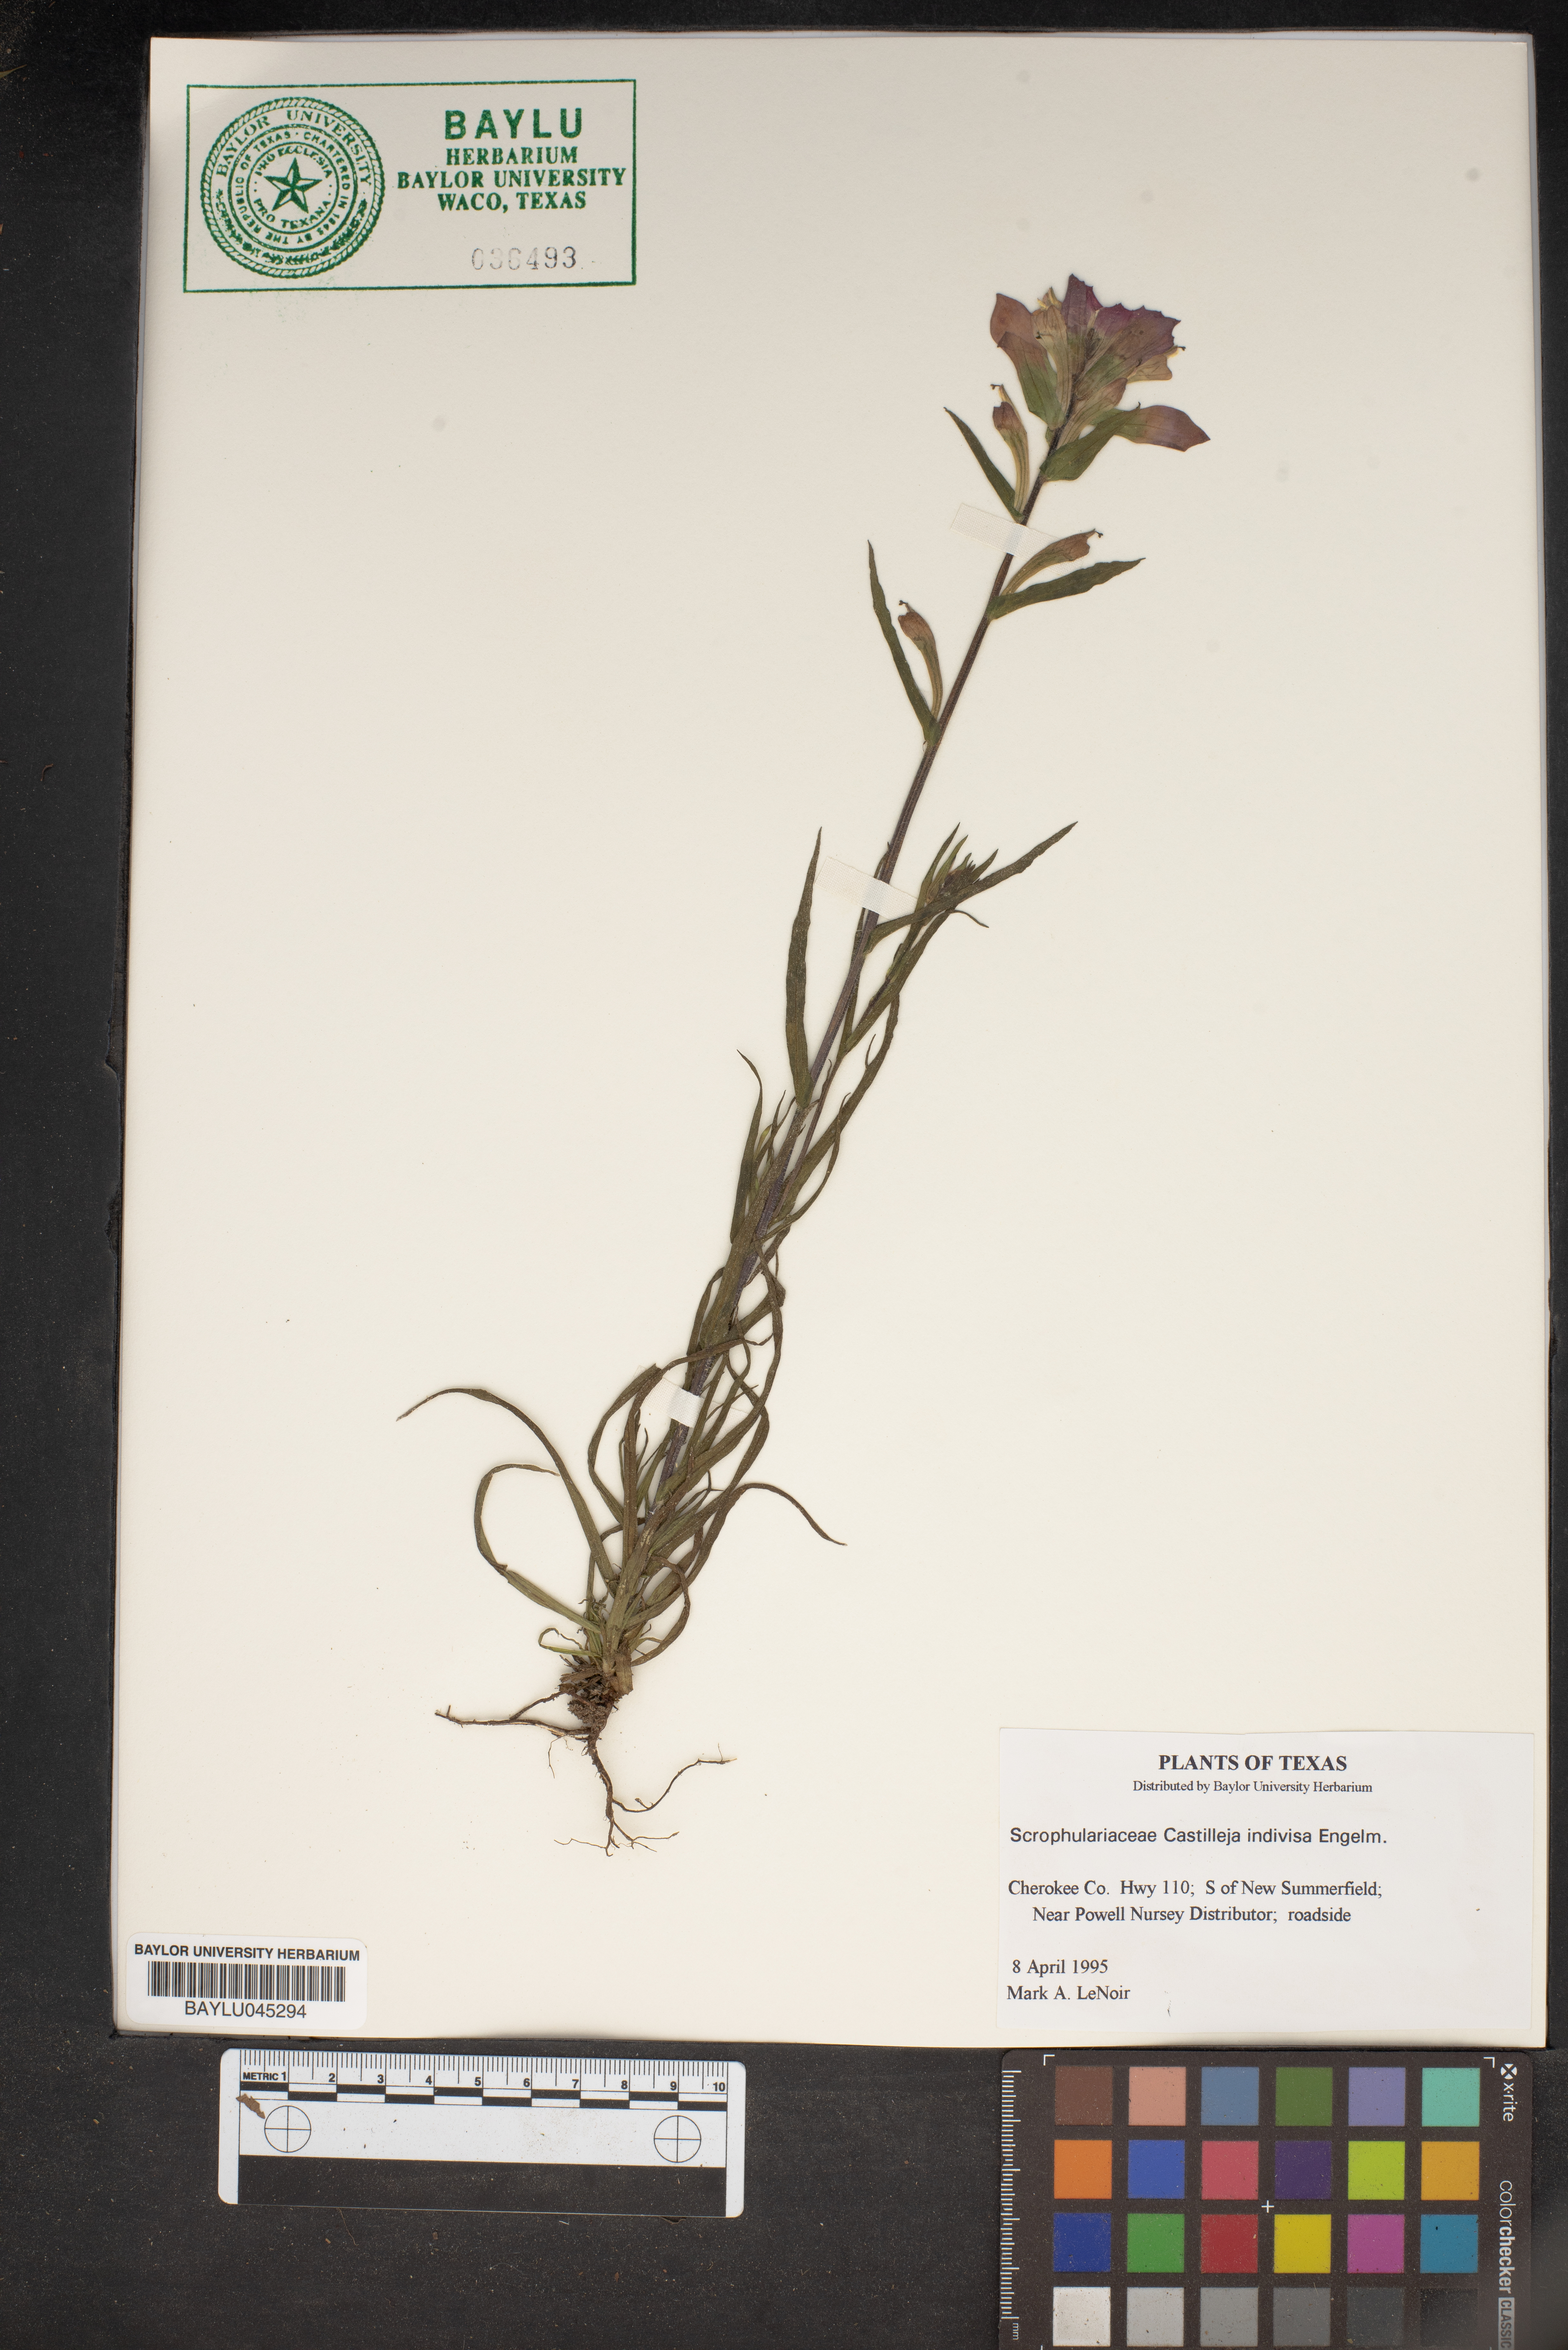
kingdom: Plantae
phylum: Tracheophyta
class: Magnoliopsida
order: Lamiales
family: Orobanchaceae
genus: Castilleja
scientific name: Castilleja indivisa
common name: Texas paintbrush
